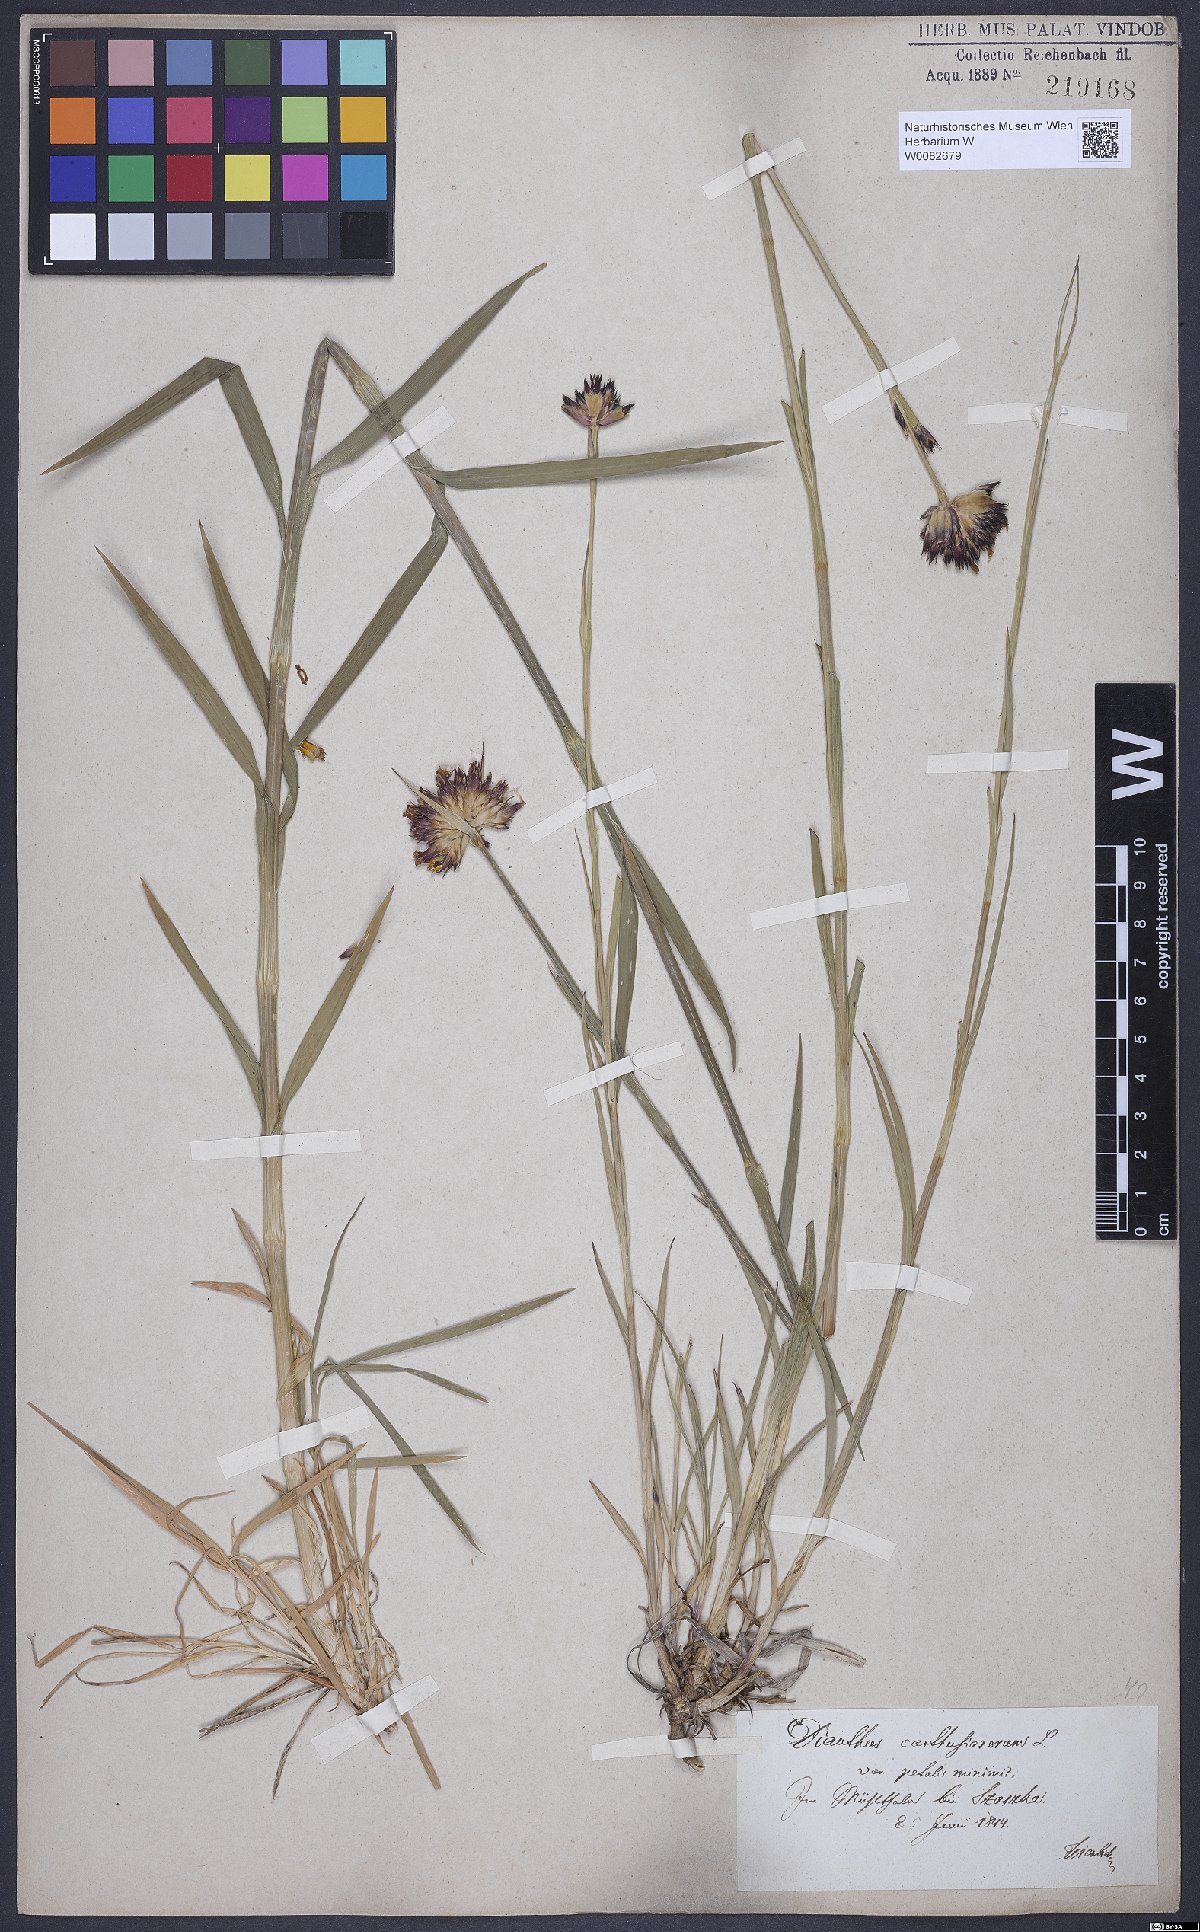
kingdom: Plantae
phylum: Tracheophyta
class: Magnoliopsida
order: Caryophyllales
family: Caryophyllaceae
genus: Dianthus
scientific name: Dianthus carthusianorum
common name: Carthusian pink
